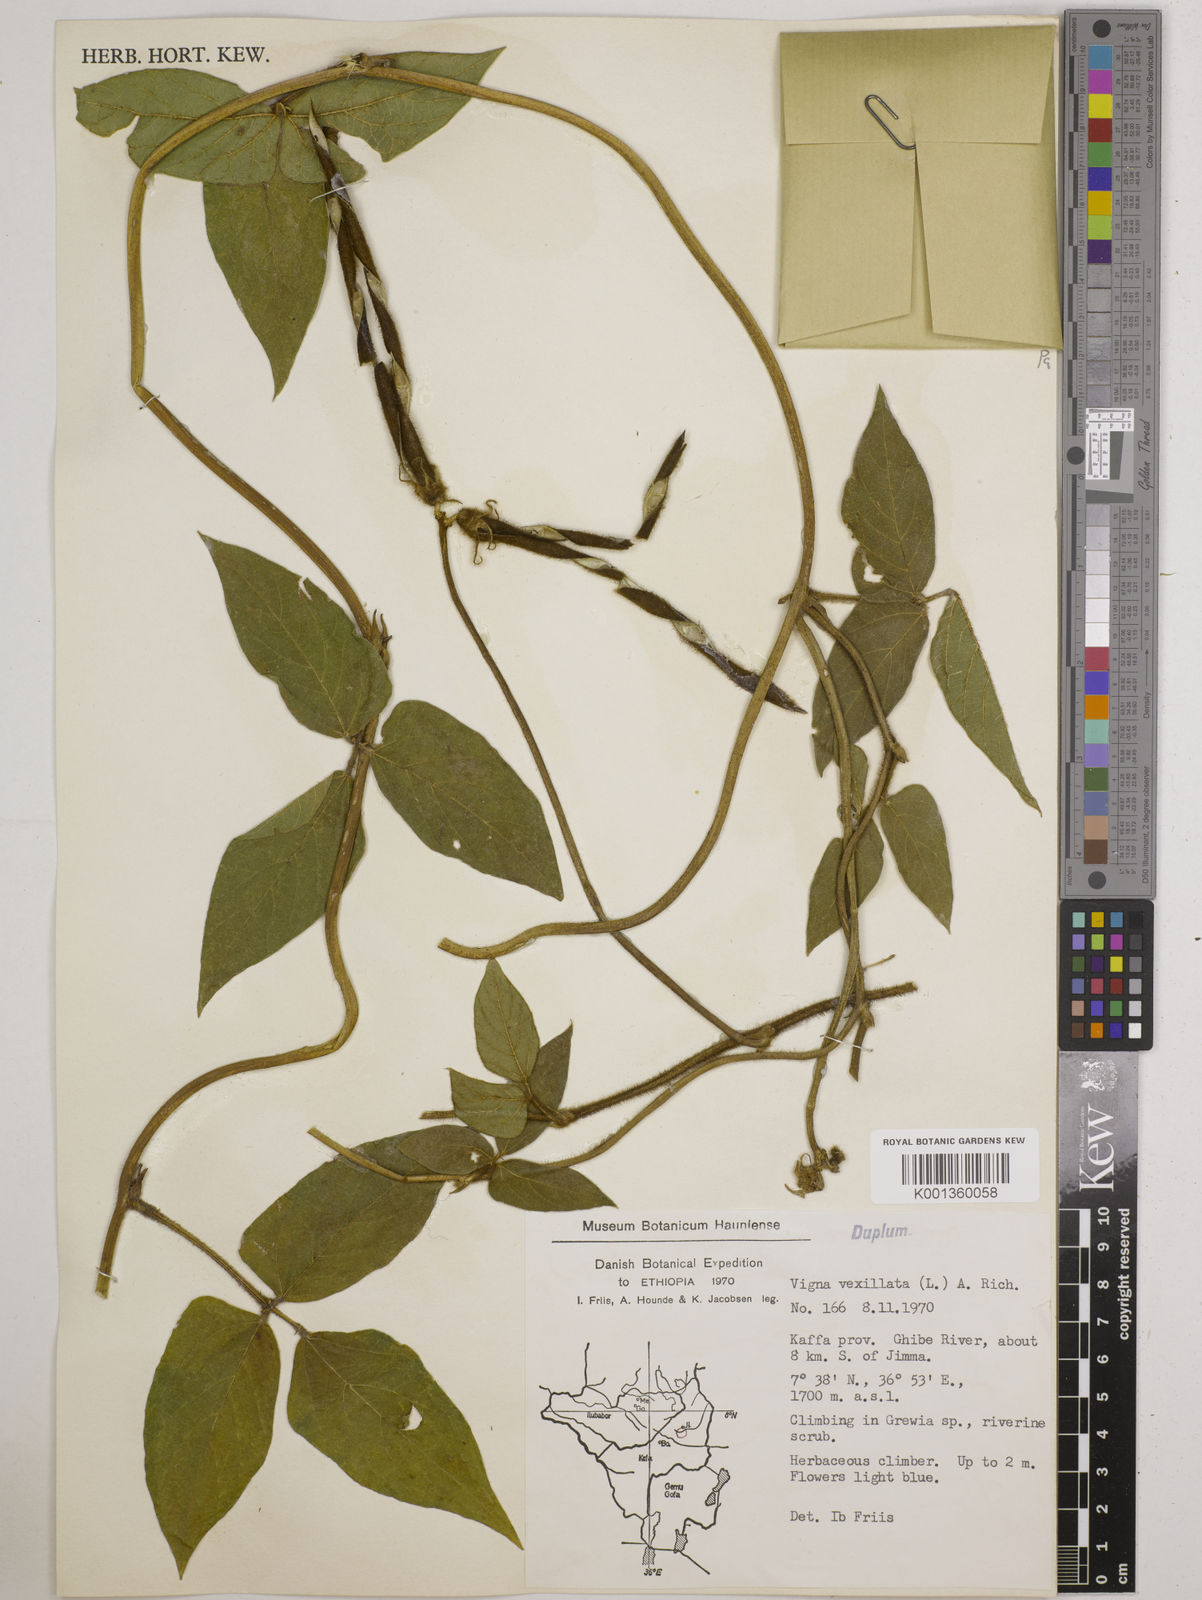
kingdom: Plantae
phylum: Tracheophyta
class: Magnoliopsida
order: Fabales
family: Fabaceae
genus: Vigna
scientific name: Vigna vexillata
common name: Zombi pea
